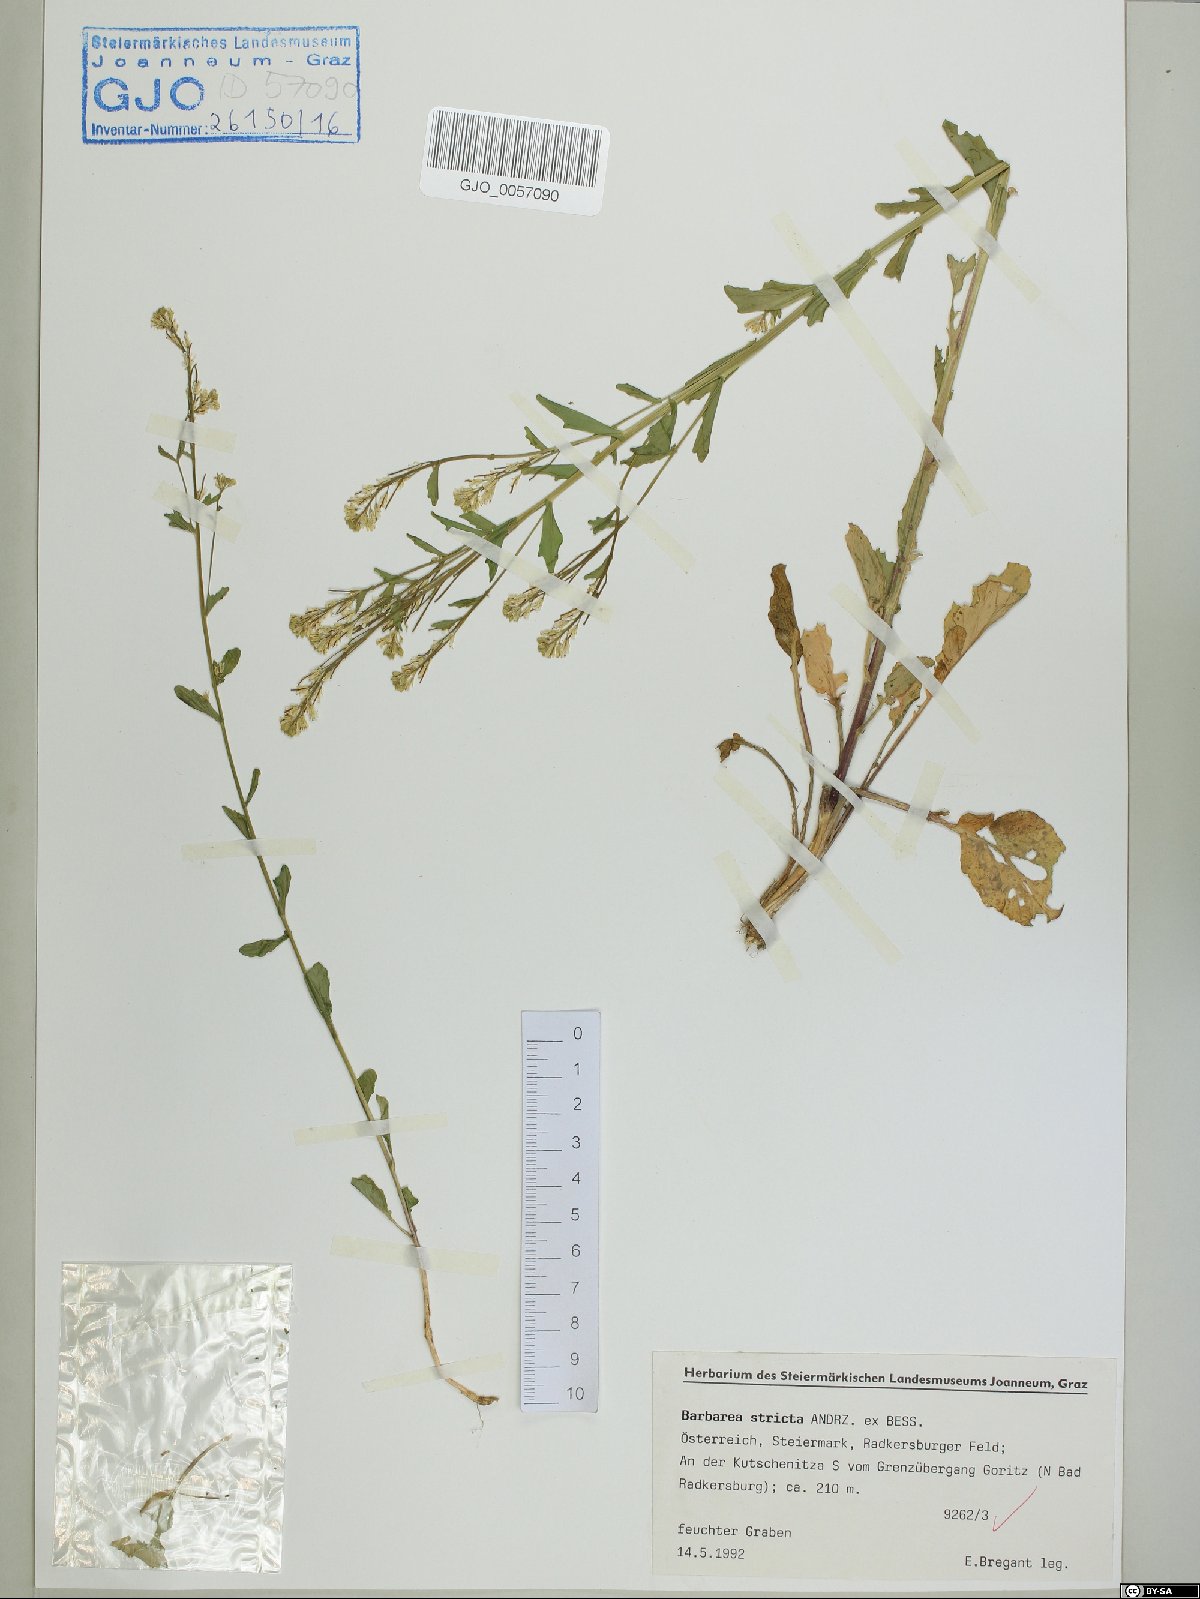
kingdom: Plantae
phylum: Tracheophyta
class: Magnoliopsida
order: Brassicales
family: Brassicaceae
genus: Barbarea
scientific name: Barbarea stricta
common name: Small-flowered winter-cress
